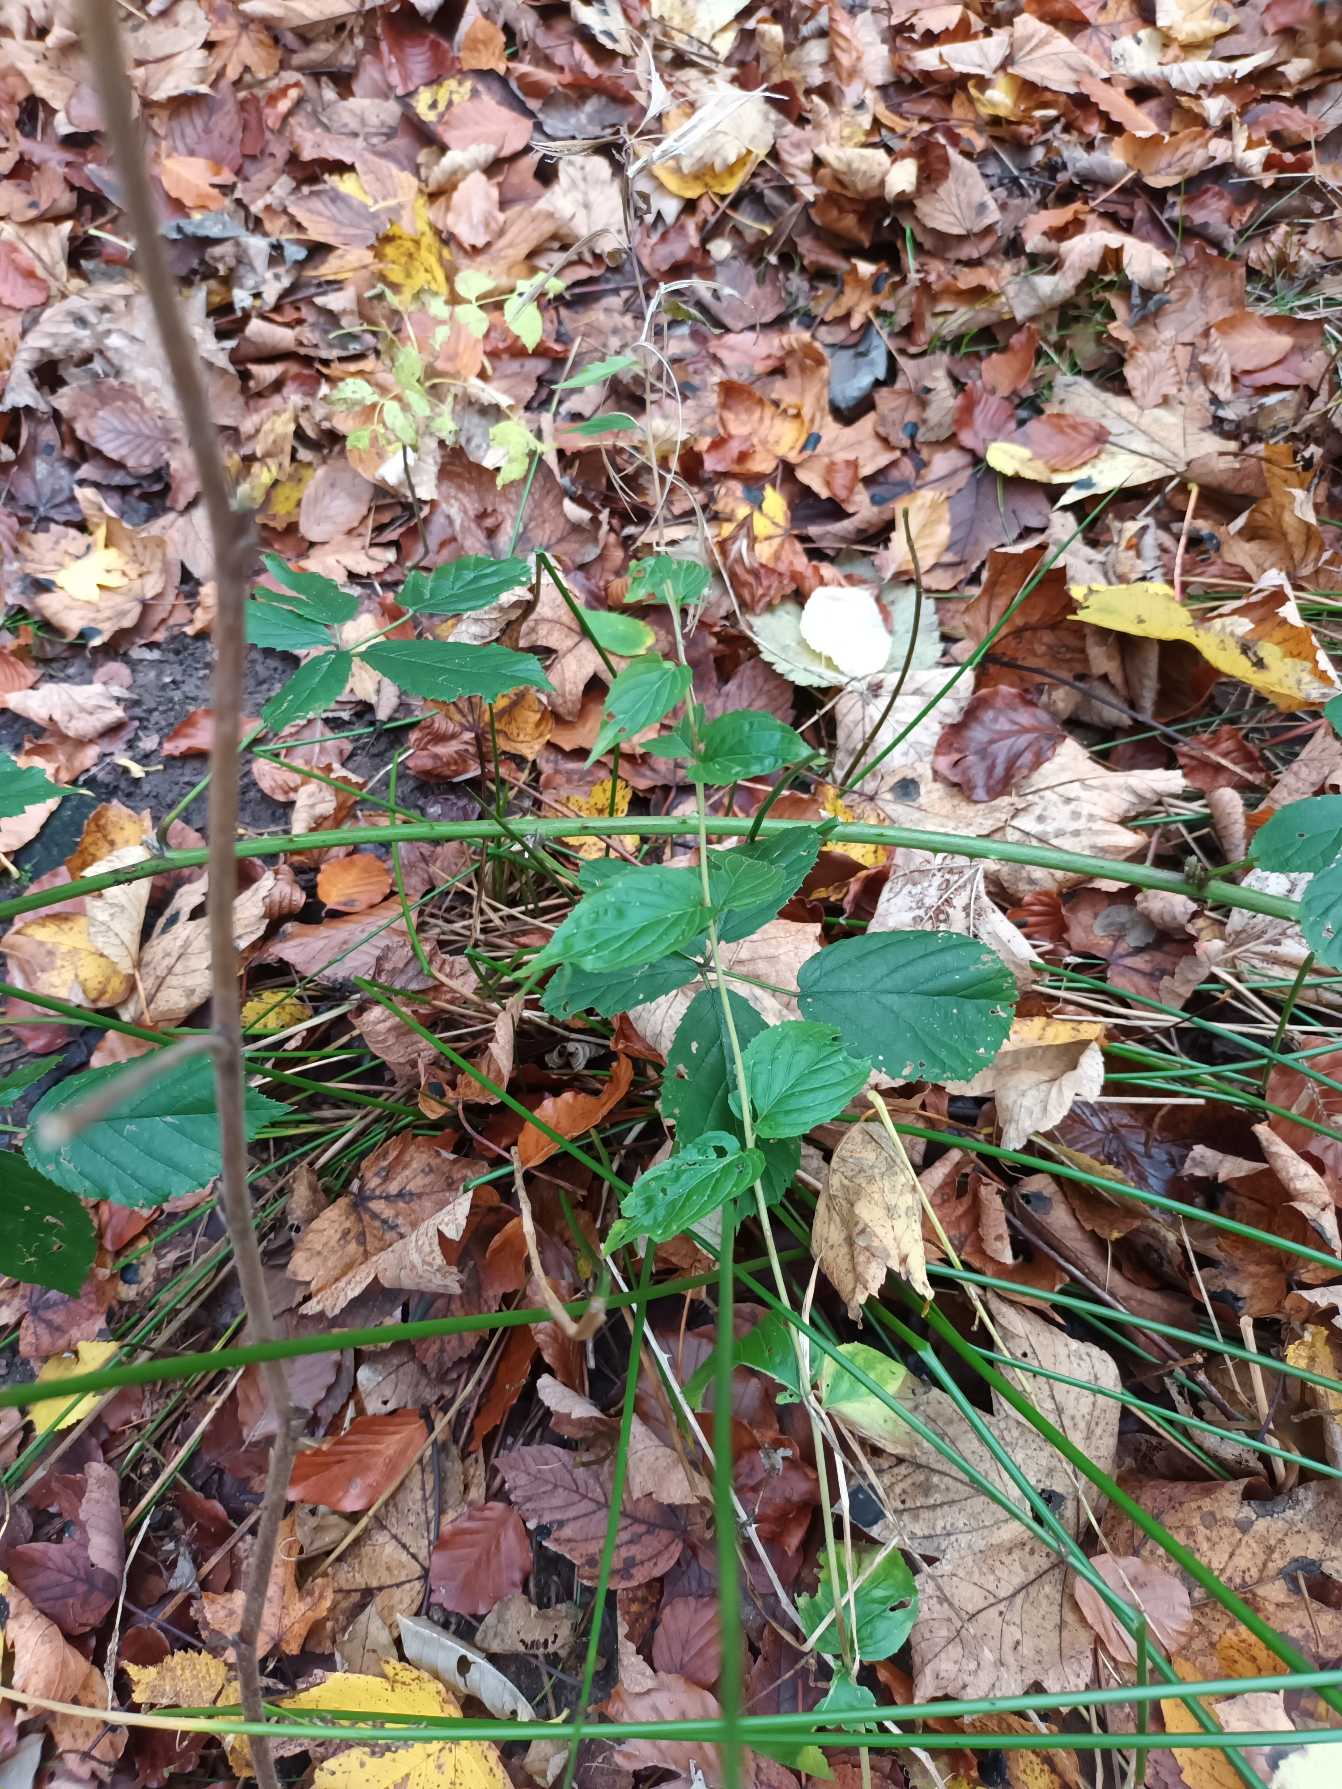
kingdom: Plantae
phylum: Tracheophyta
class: Magnoliopsida
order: Myrtales
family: Onagraceae
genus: Epilobium
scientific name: Epilobium montanum
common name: Glat dueurt
